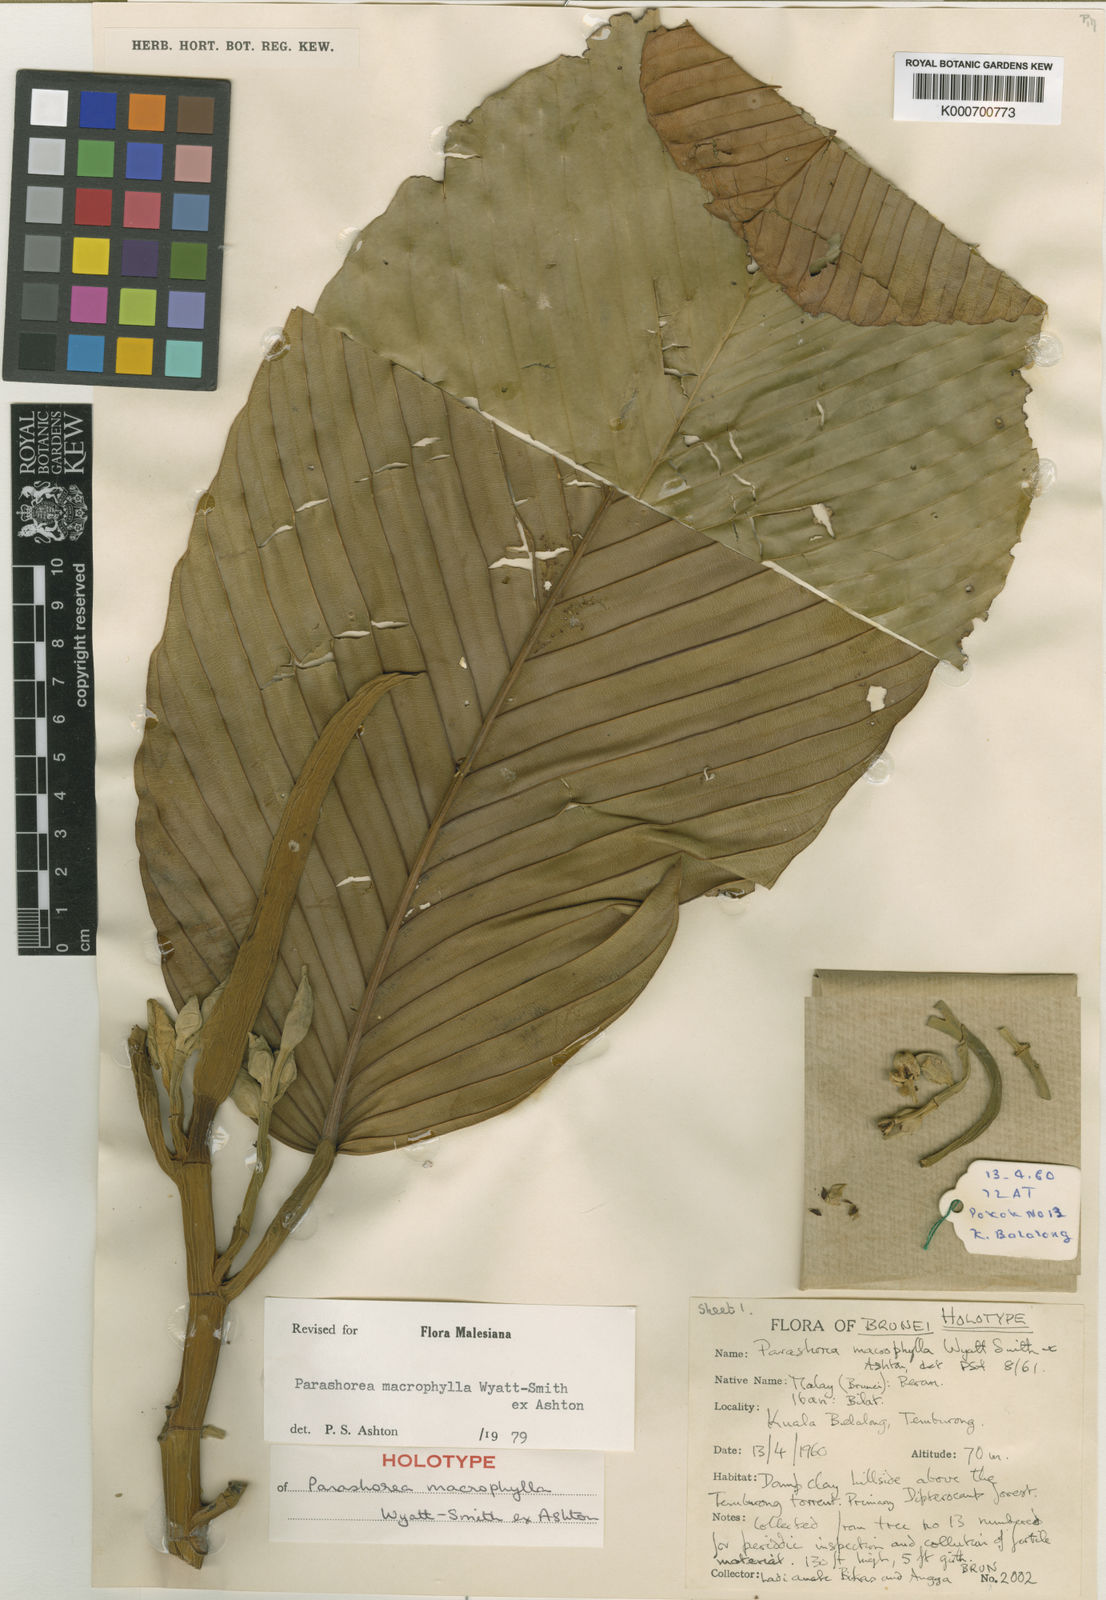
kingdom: Plantae
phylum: Tracheophyta
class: Magnoliopsida
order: Malvales
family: Dipterocarpaceae
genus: Parashorea
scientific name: Parashorea macrophylla
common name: White lauan
